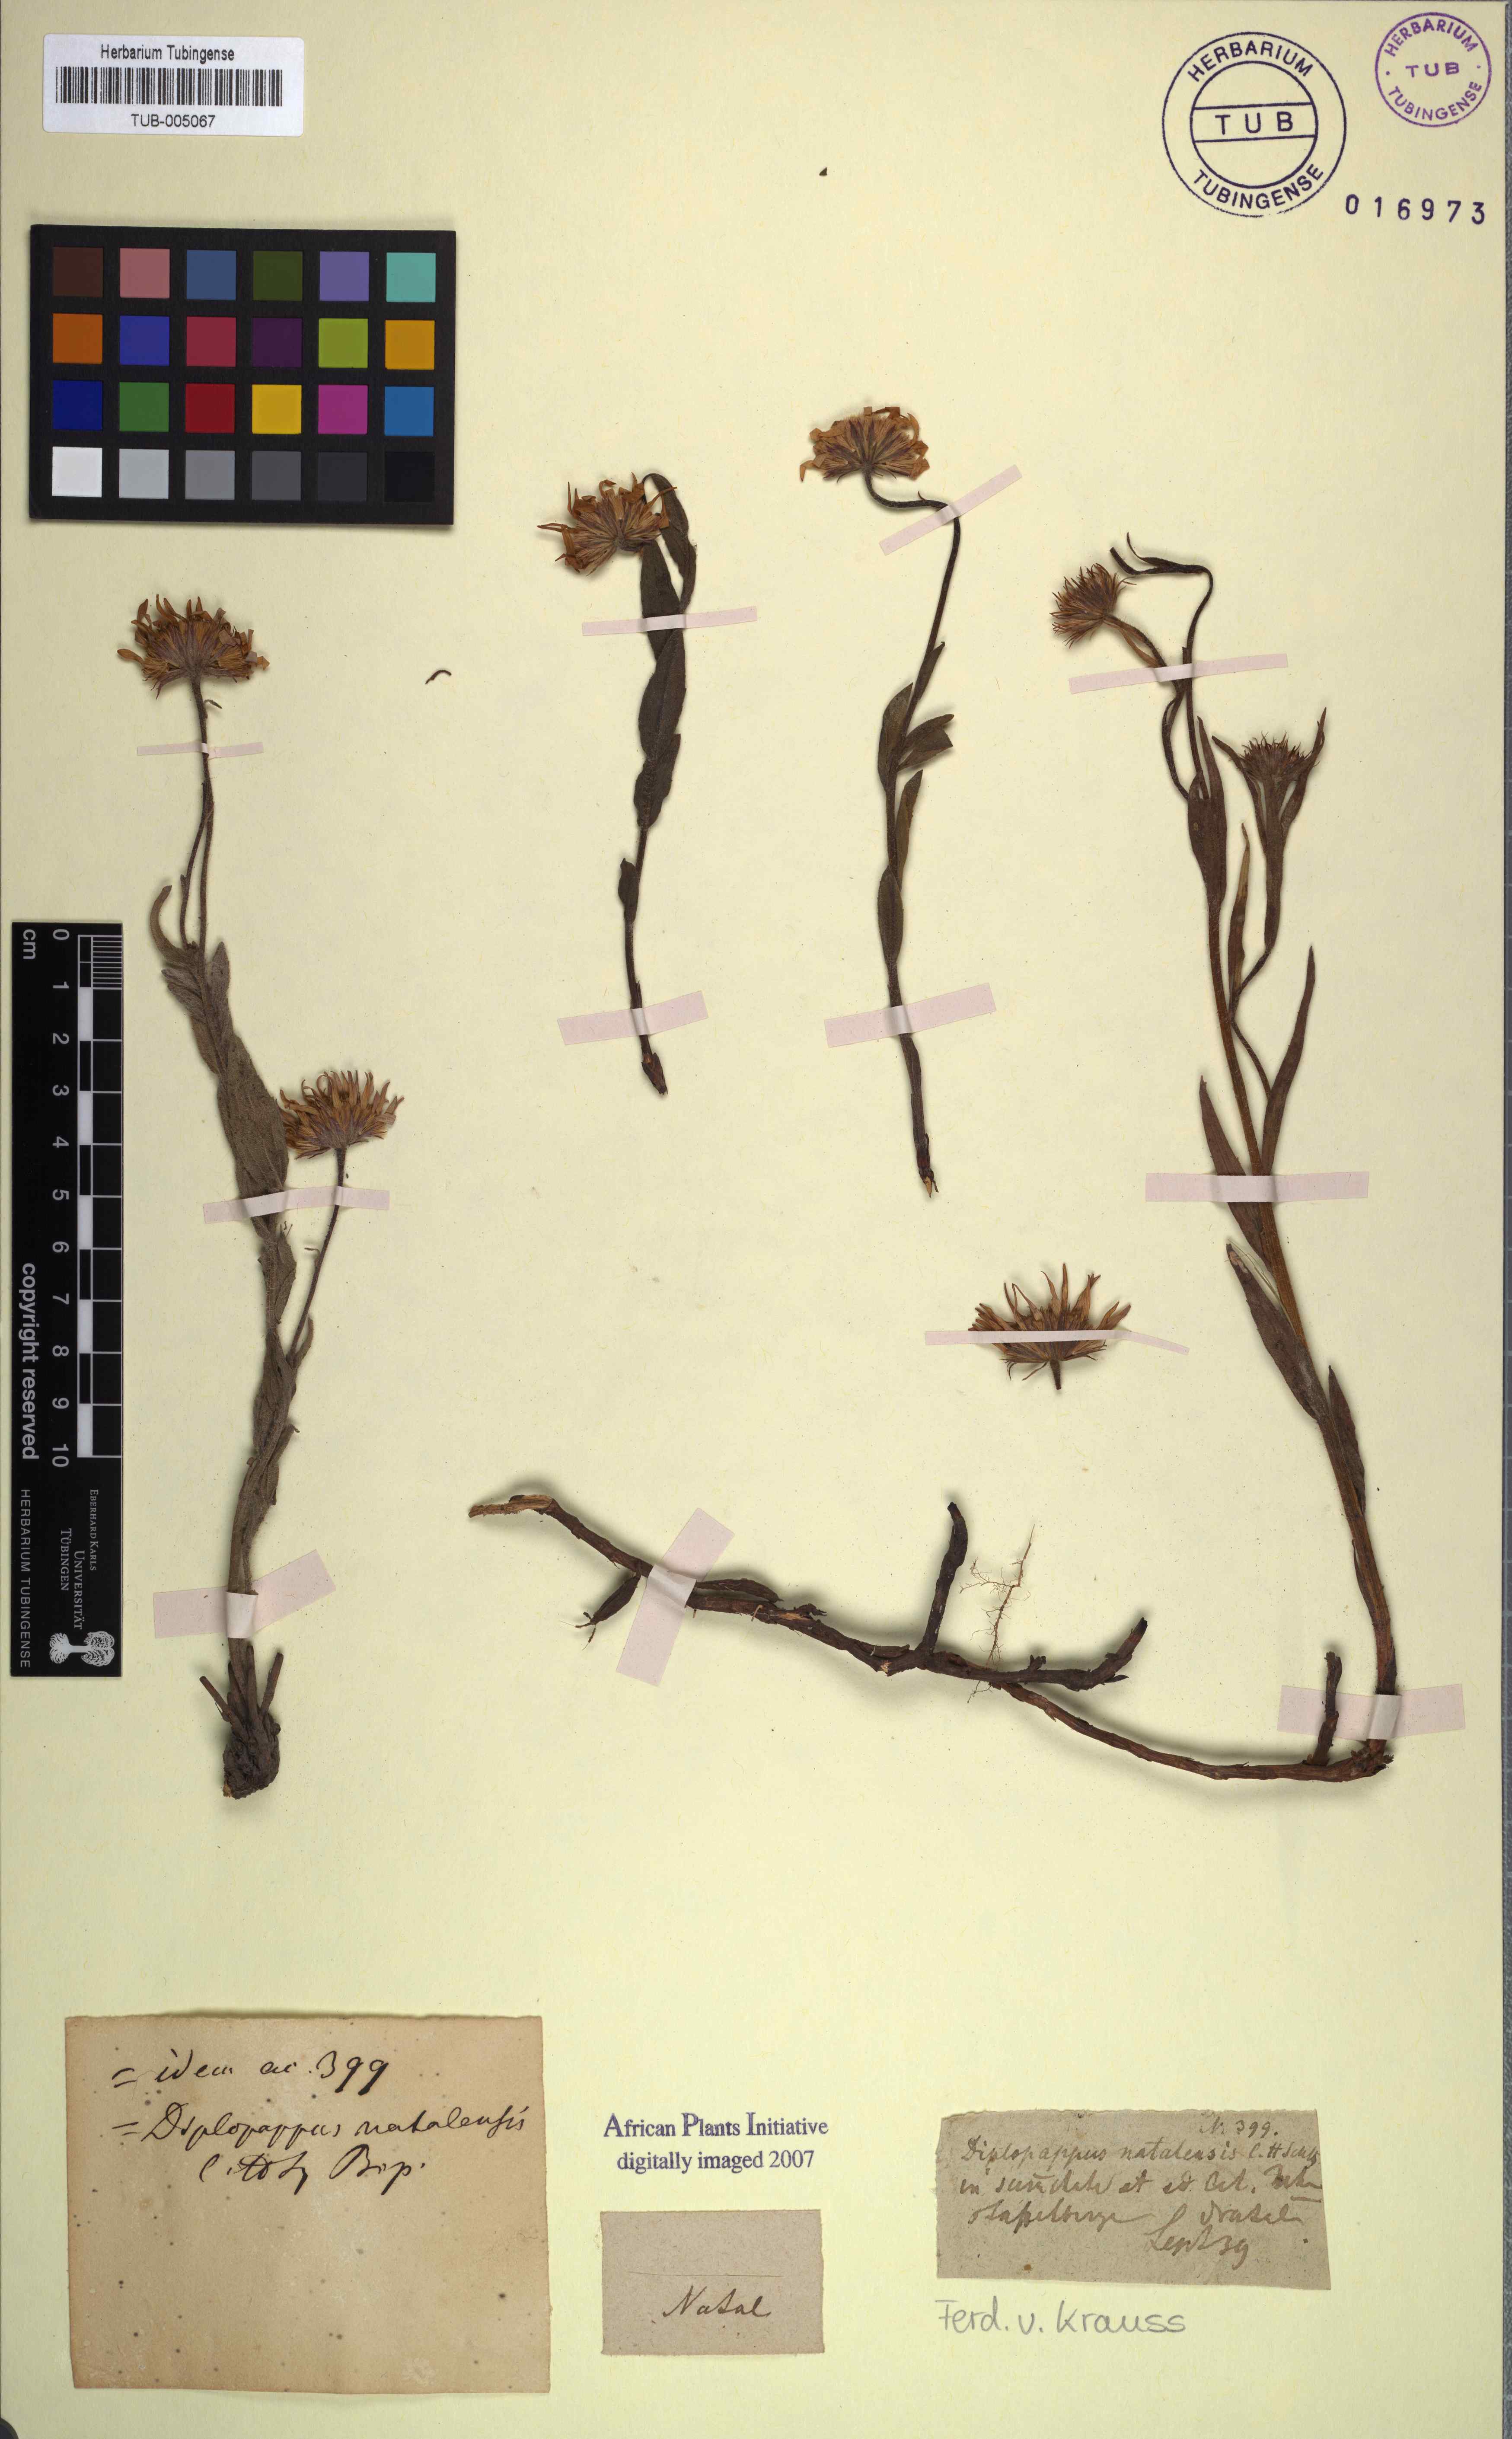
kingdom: Plantae
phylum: Tracheophyta
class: Magnoliopsida
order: Asterales
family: Asteraceae
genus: Felicia
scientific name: Felicia rosulata
